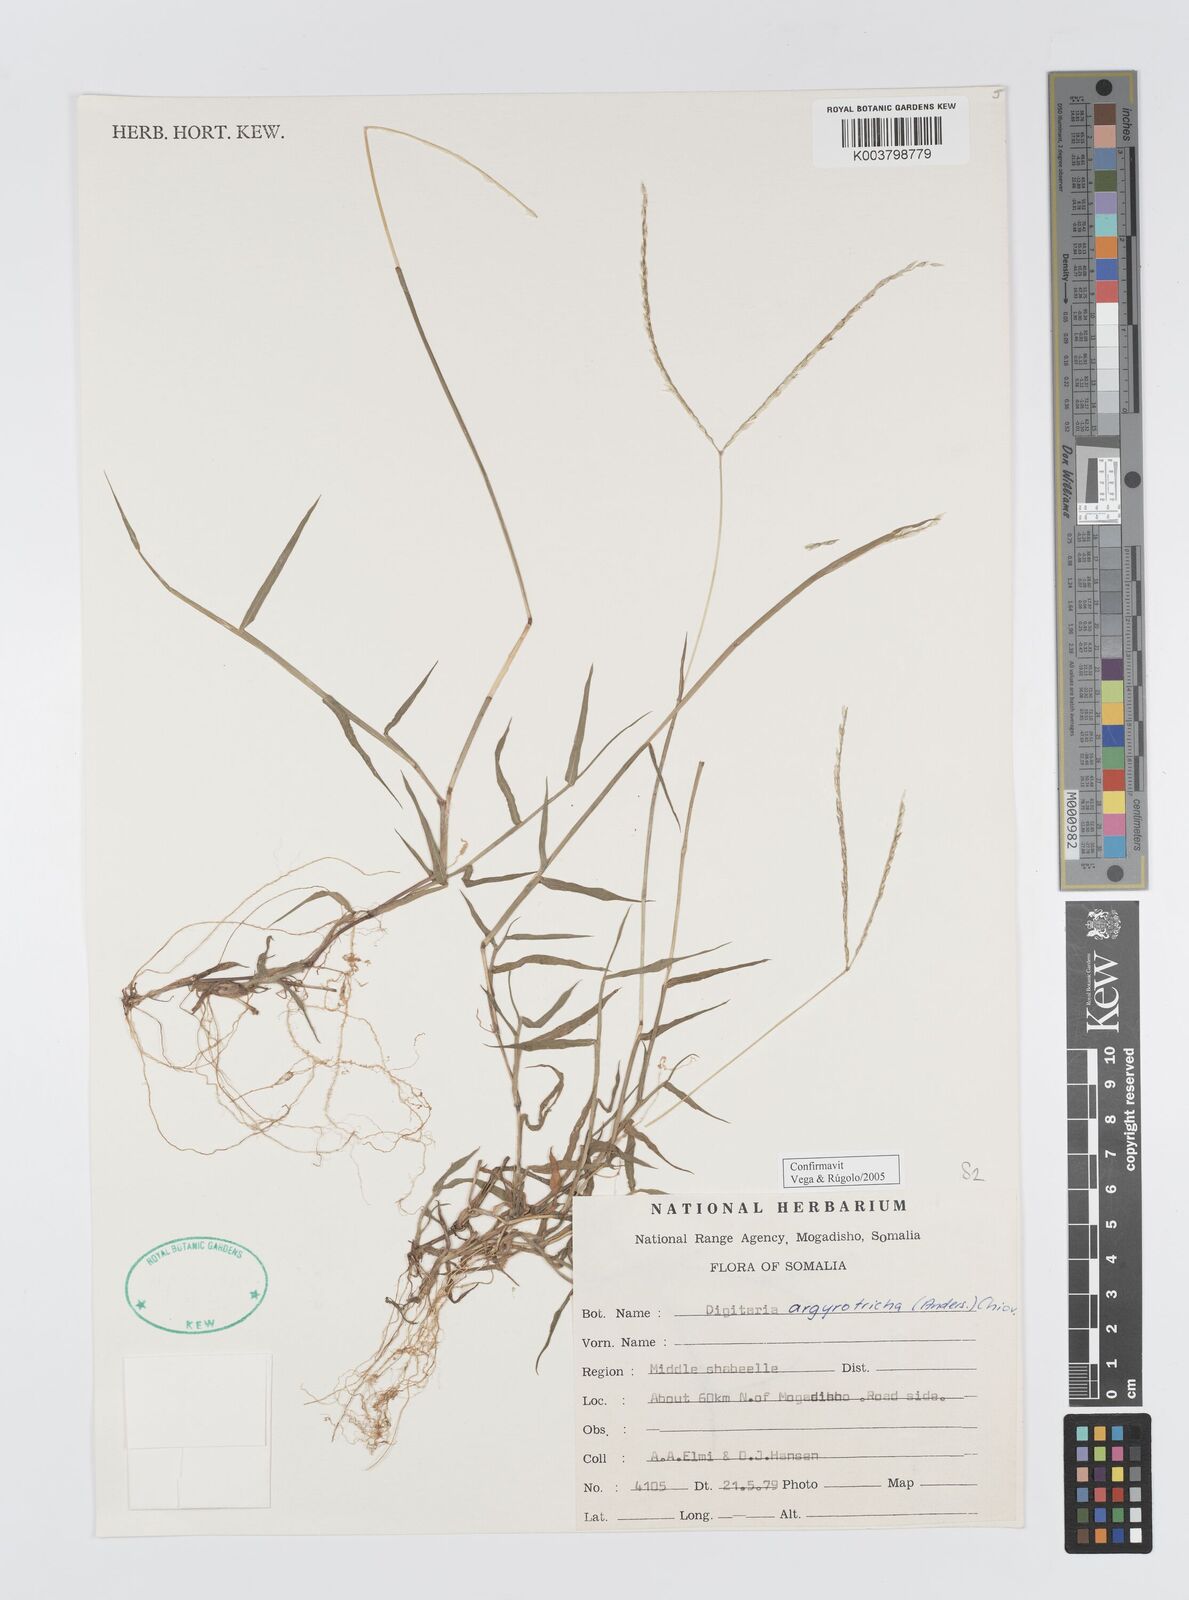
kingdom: Plantae
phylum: Tracheophyta
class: Liliopsida
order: Poales
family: Poaceae
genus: Digitaria
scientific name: Digitaria argyrotricha
